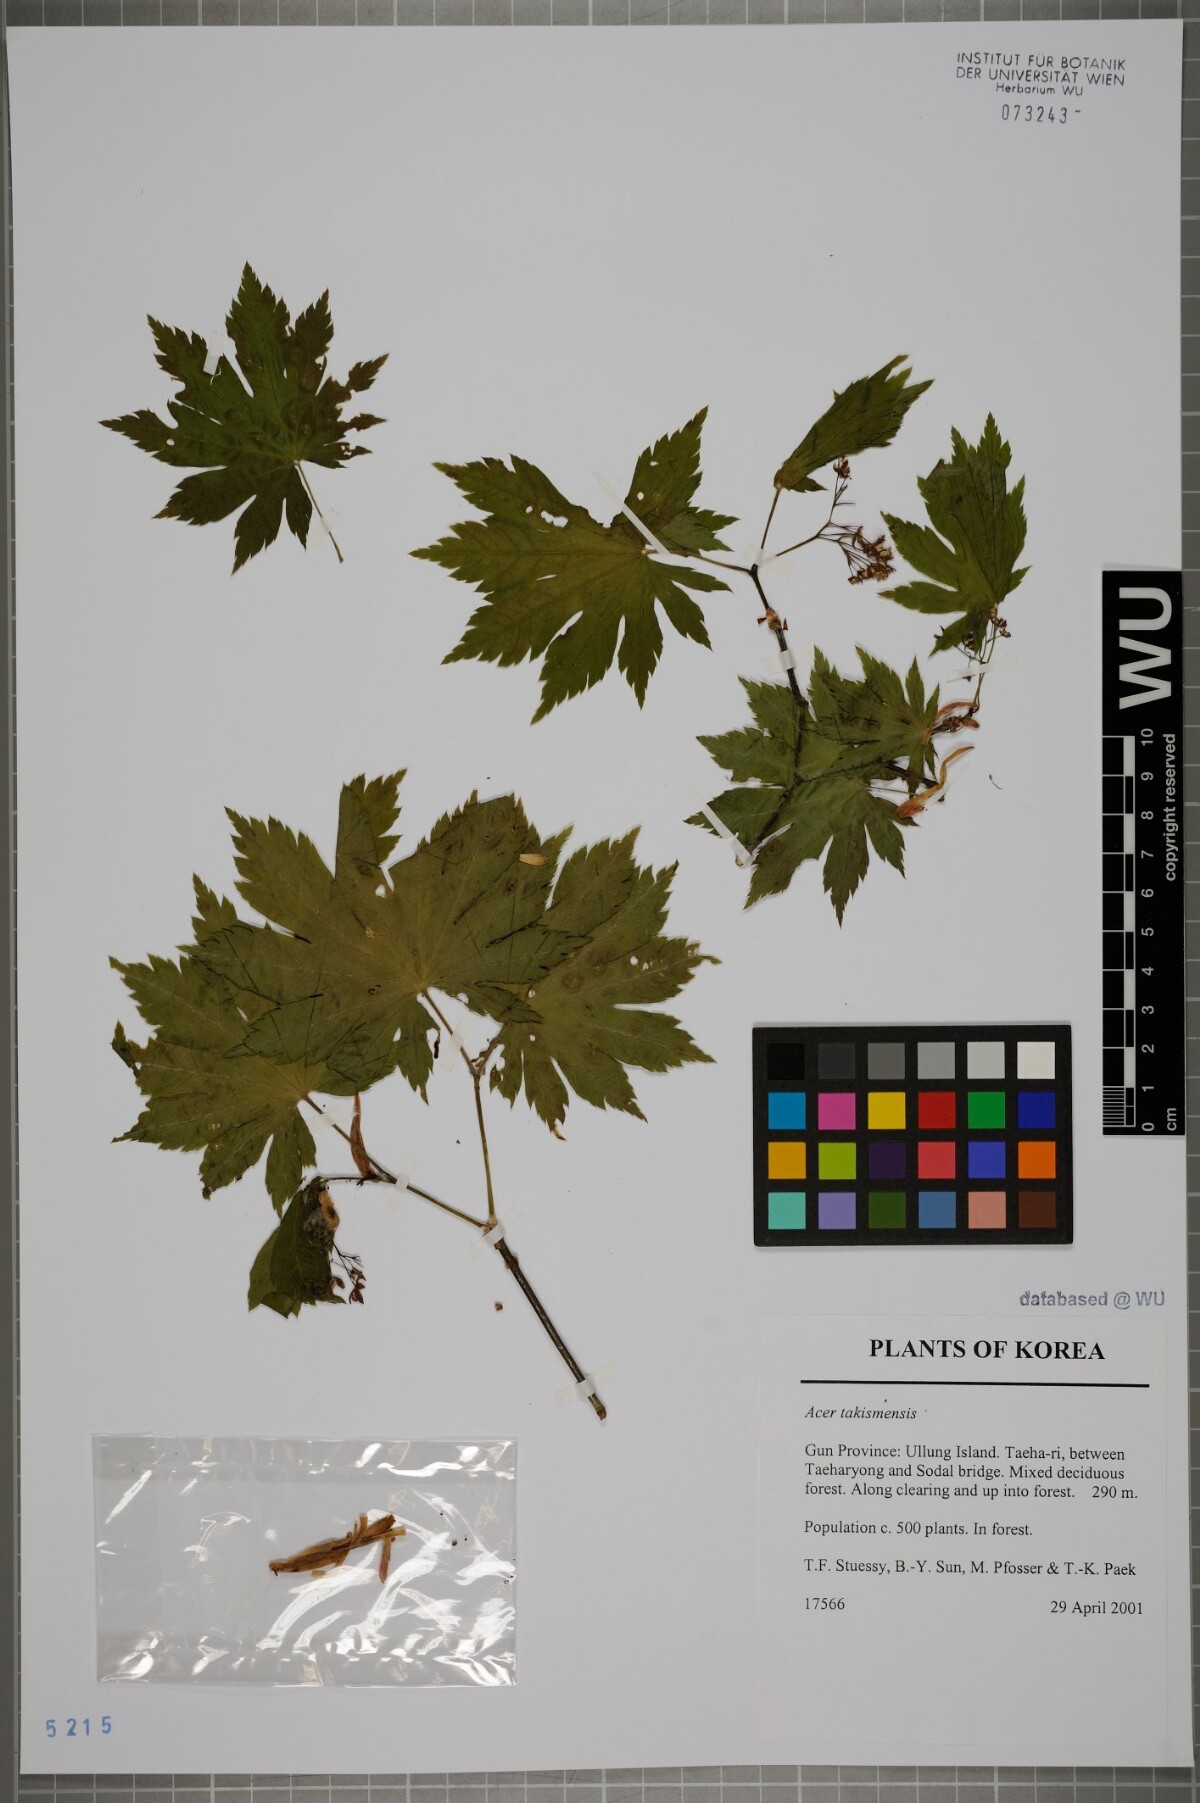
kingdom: Plantae
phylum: Tracheophyta
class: Magnoliopsida
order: Sapindales
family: Sapindaceae
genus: Acer
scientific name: Acer pseudosieboldianum
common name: Korean maple
